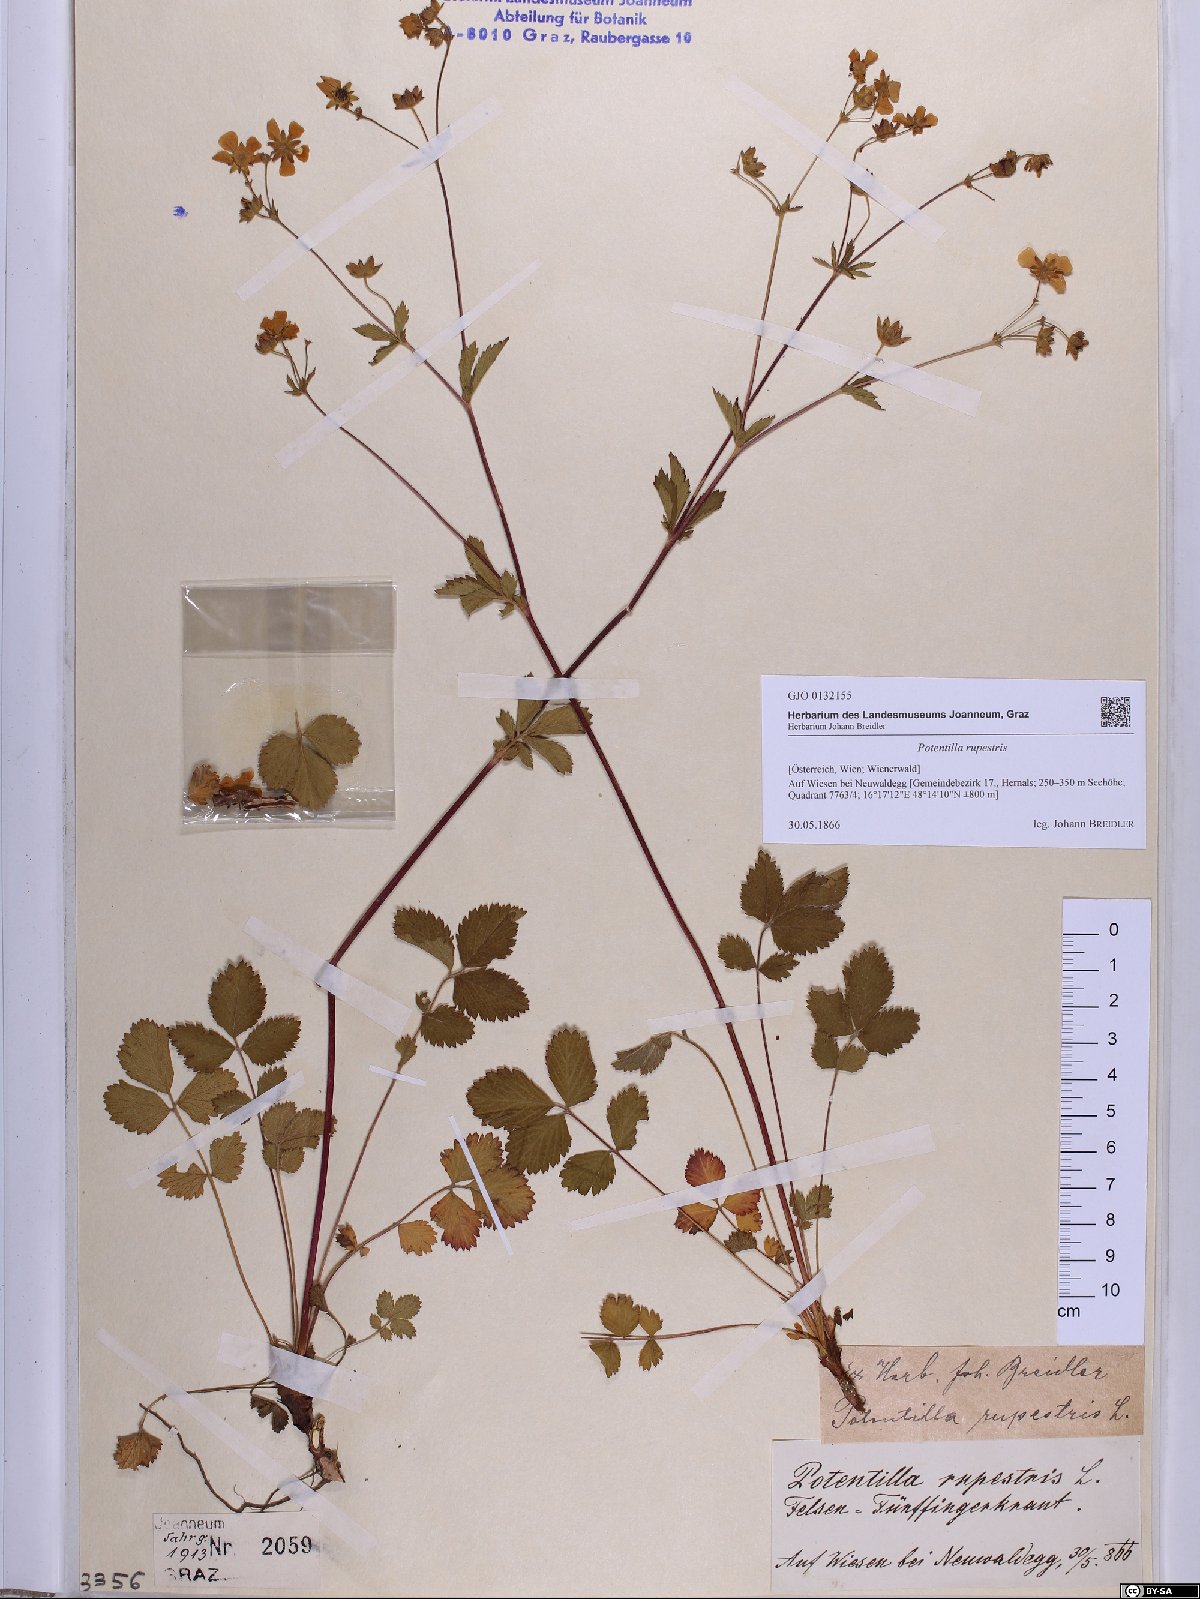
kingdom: Plantae
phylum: Tracheophyta
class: Magnoliopsida
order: Rosales
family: Rosaceae
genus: Drymocallis
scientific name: Drymocallis rupestris
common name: Rock cinquefoil
